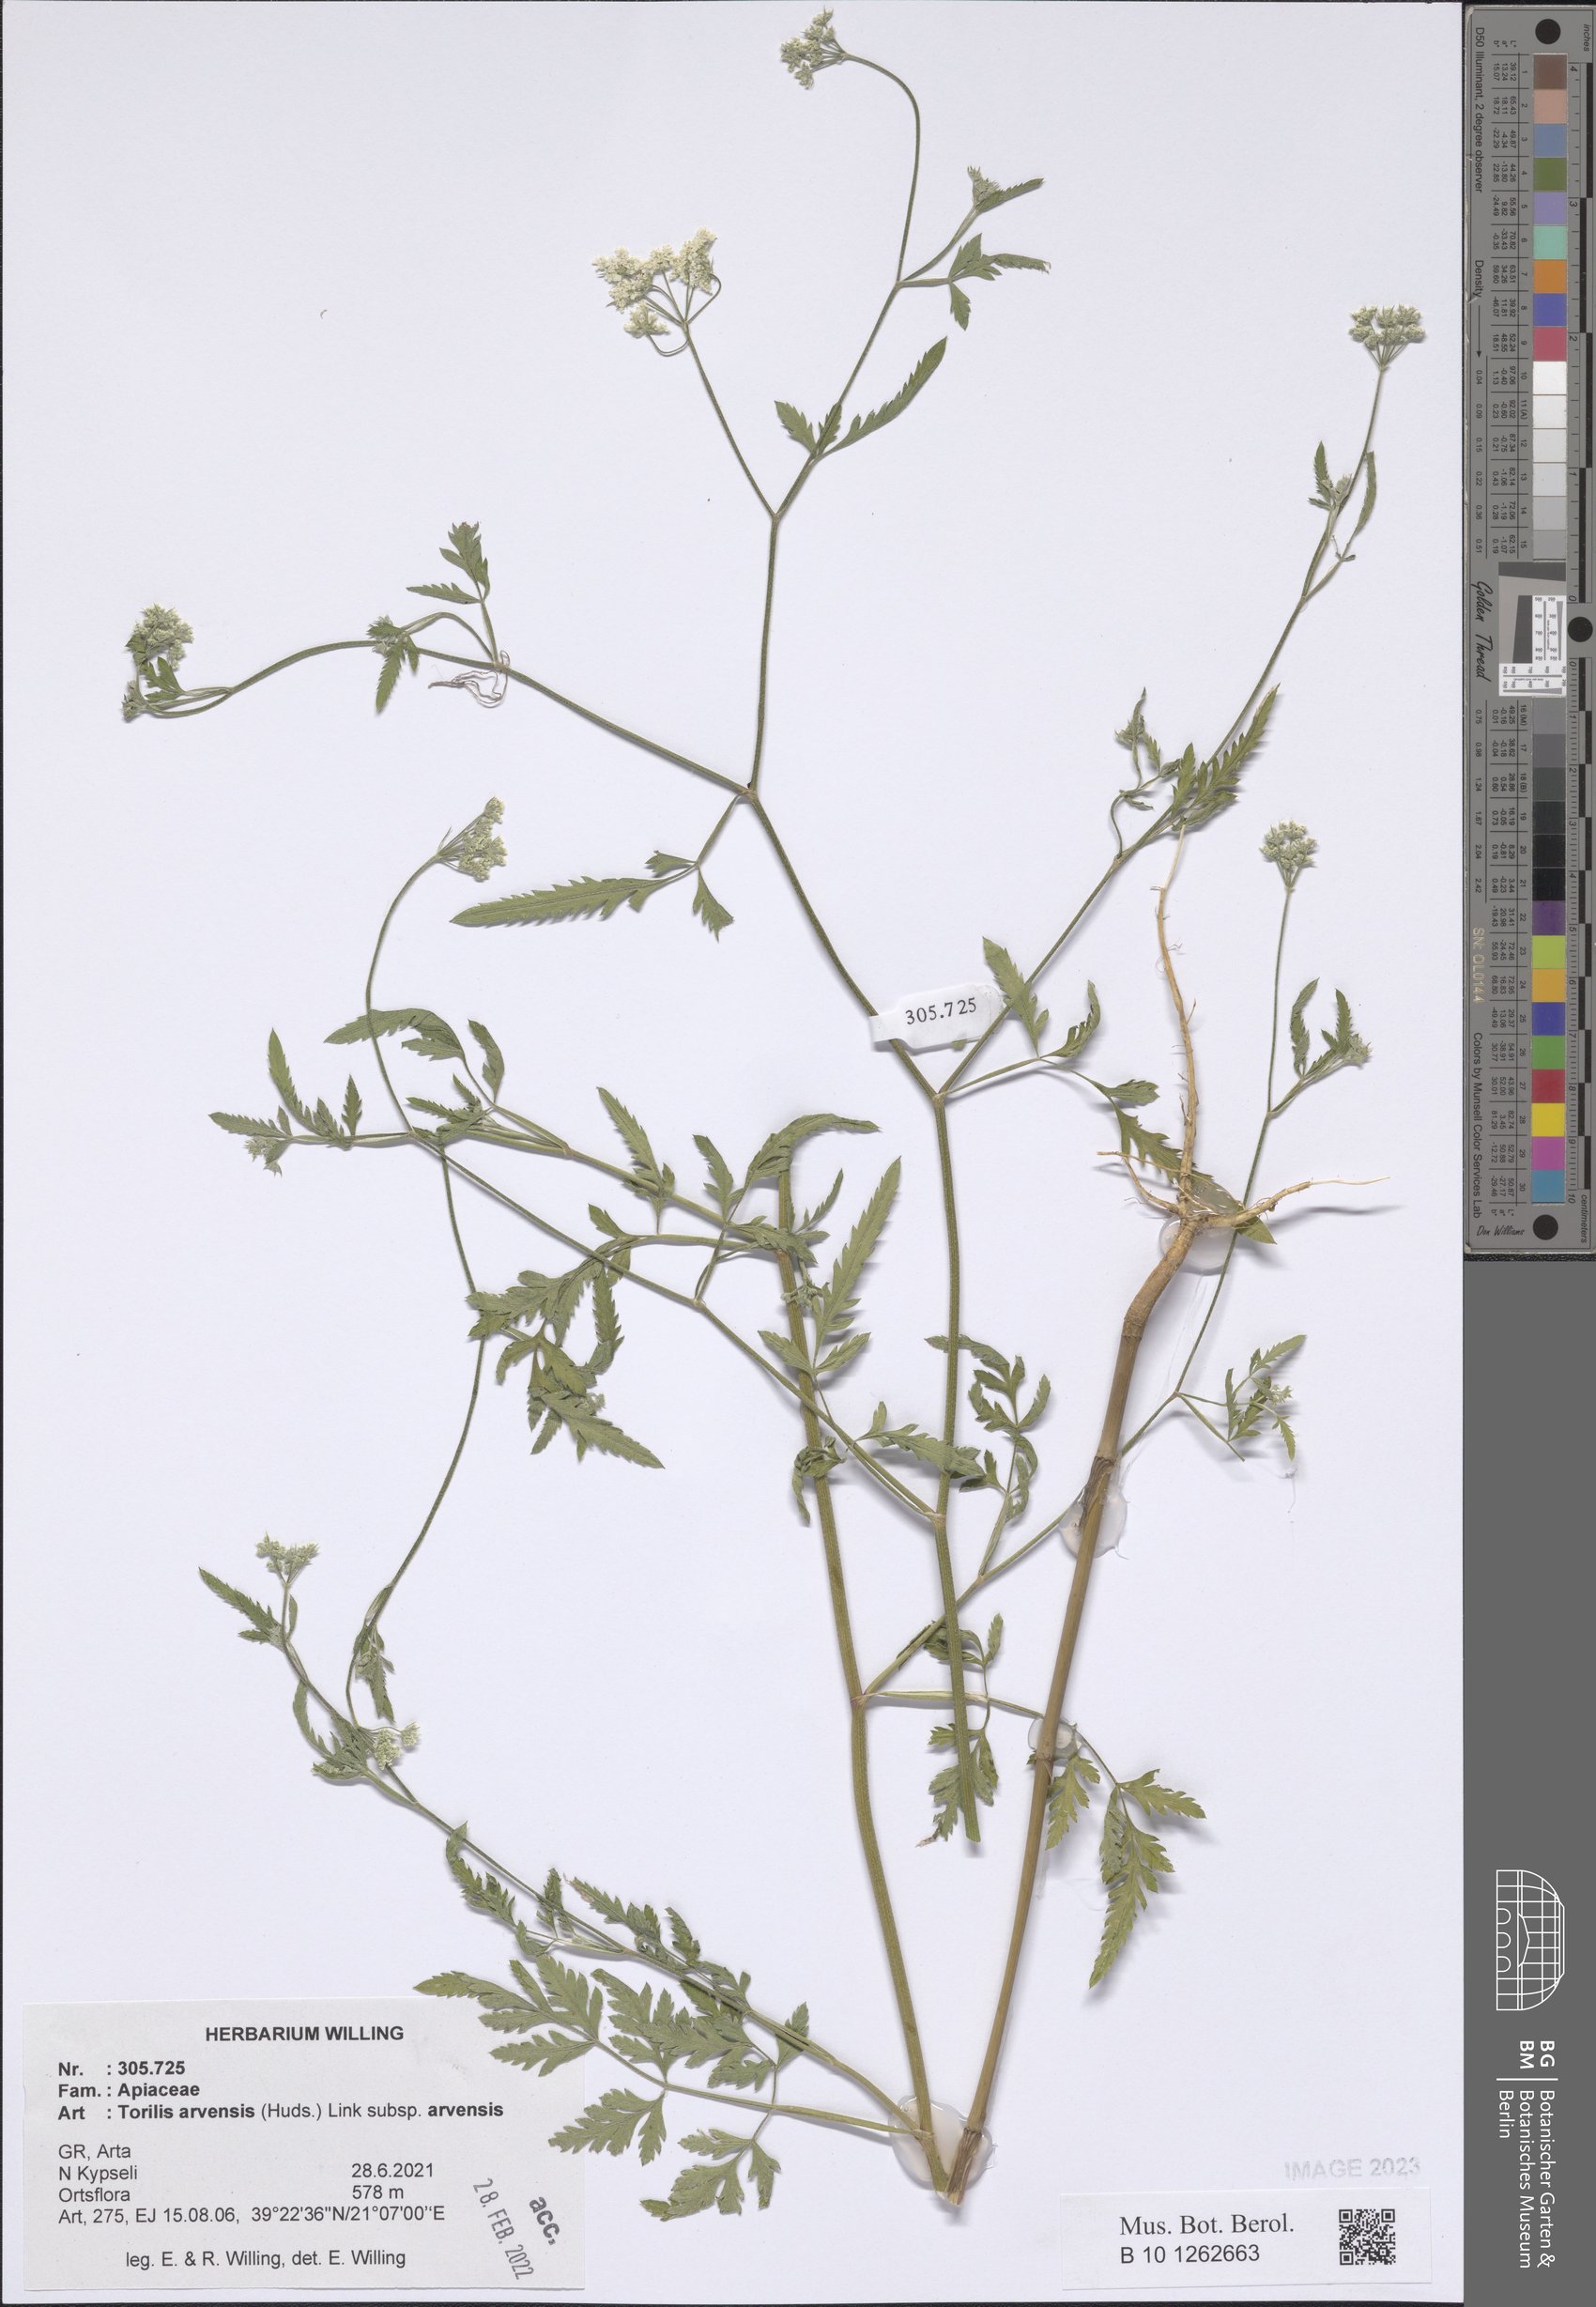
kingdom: Plantae
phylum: Tracheophyta
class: Magnoliopsida
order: Apiales
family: Apiaceae
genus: Torilis
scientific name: Torilis arvensis
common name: Spreading hedge-parsley
